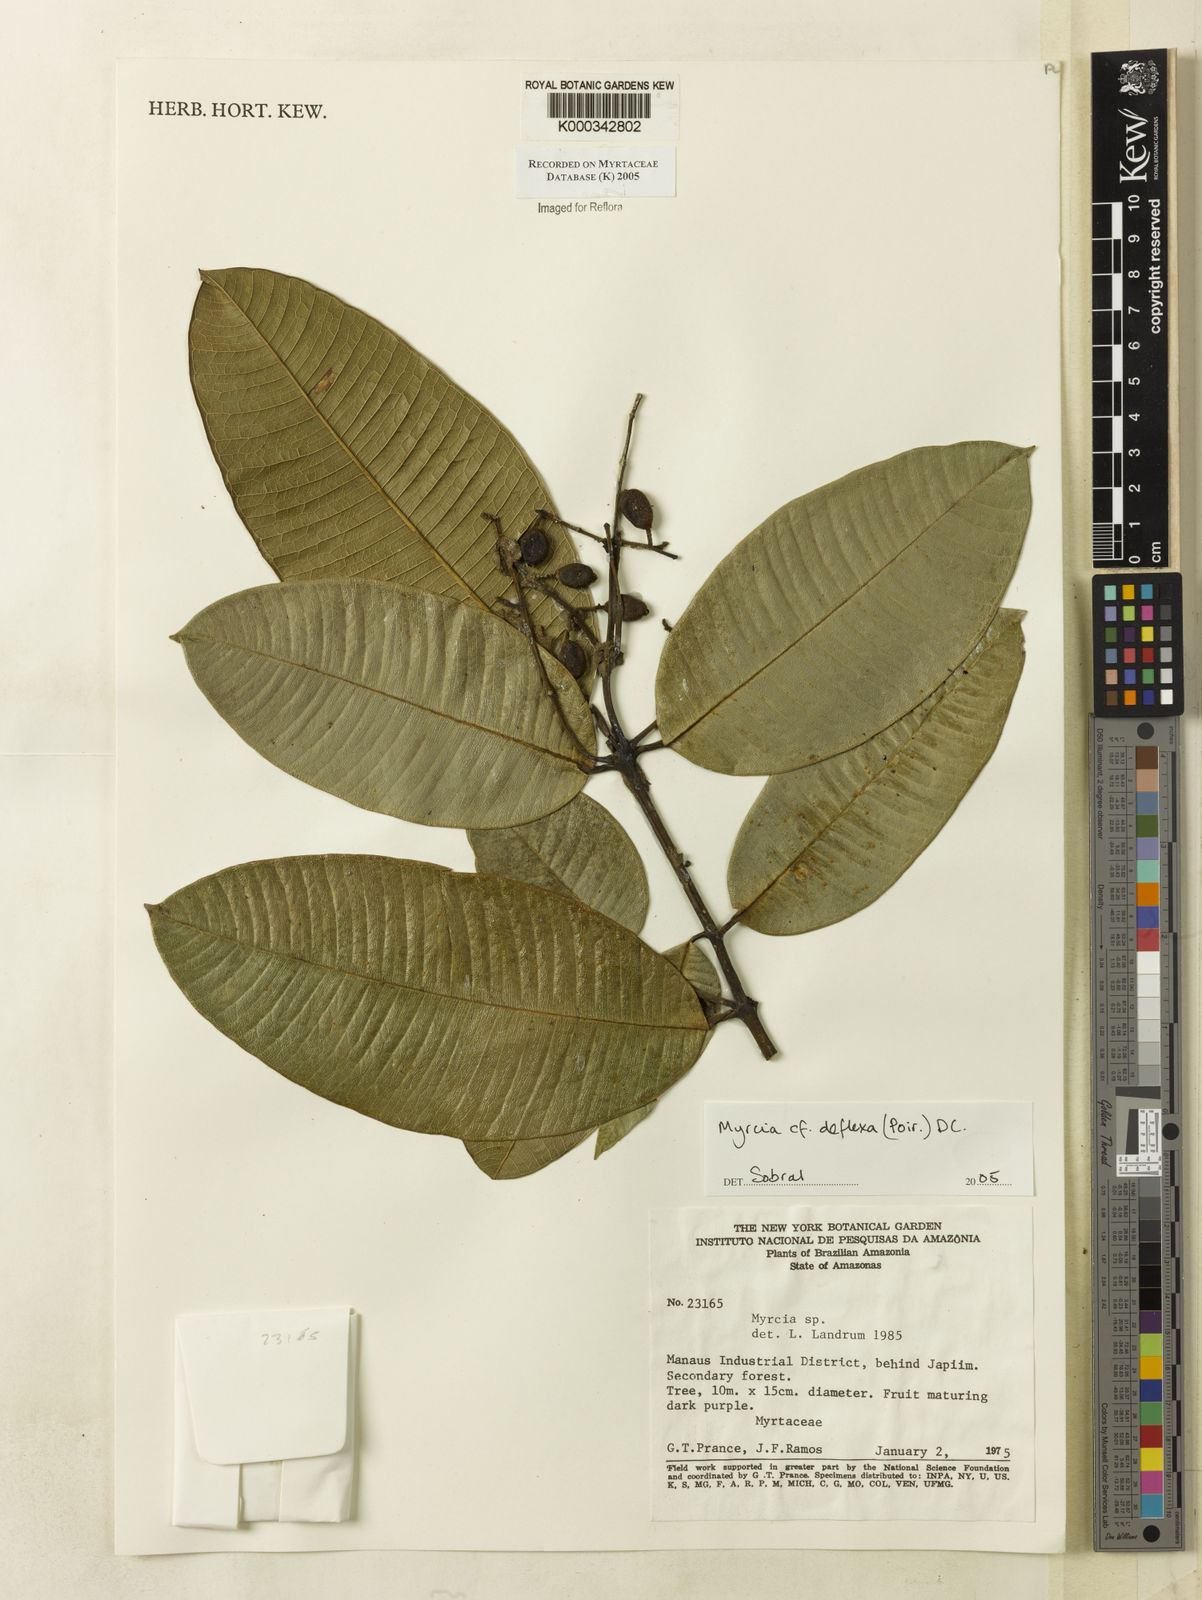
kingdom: Plantae
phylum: Tracheophyta
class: Magnoliopsida
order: Myrtales
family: Myrtaceae
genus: Myrcia
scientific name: Myrcia deflexa
